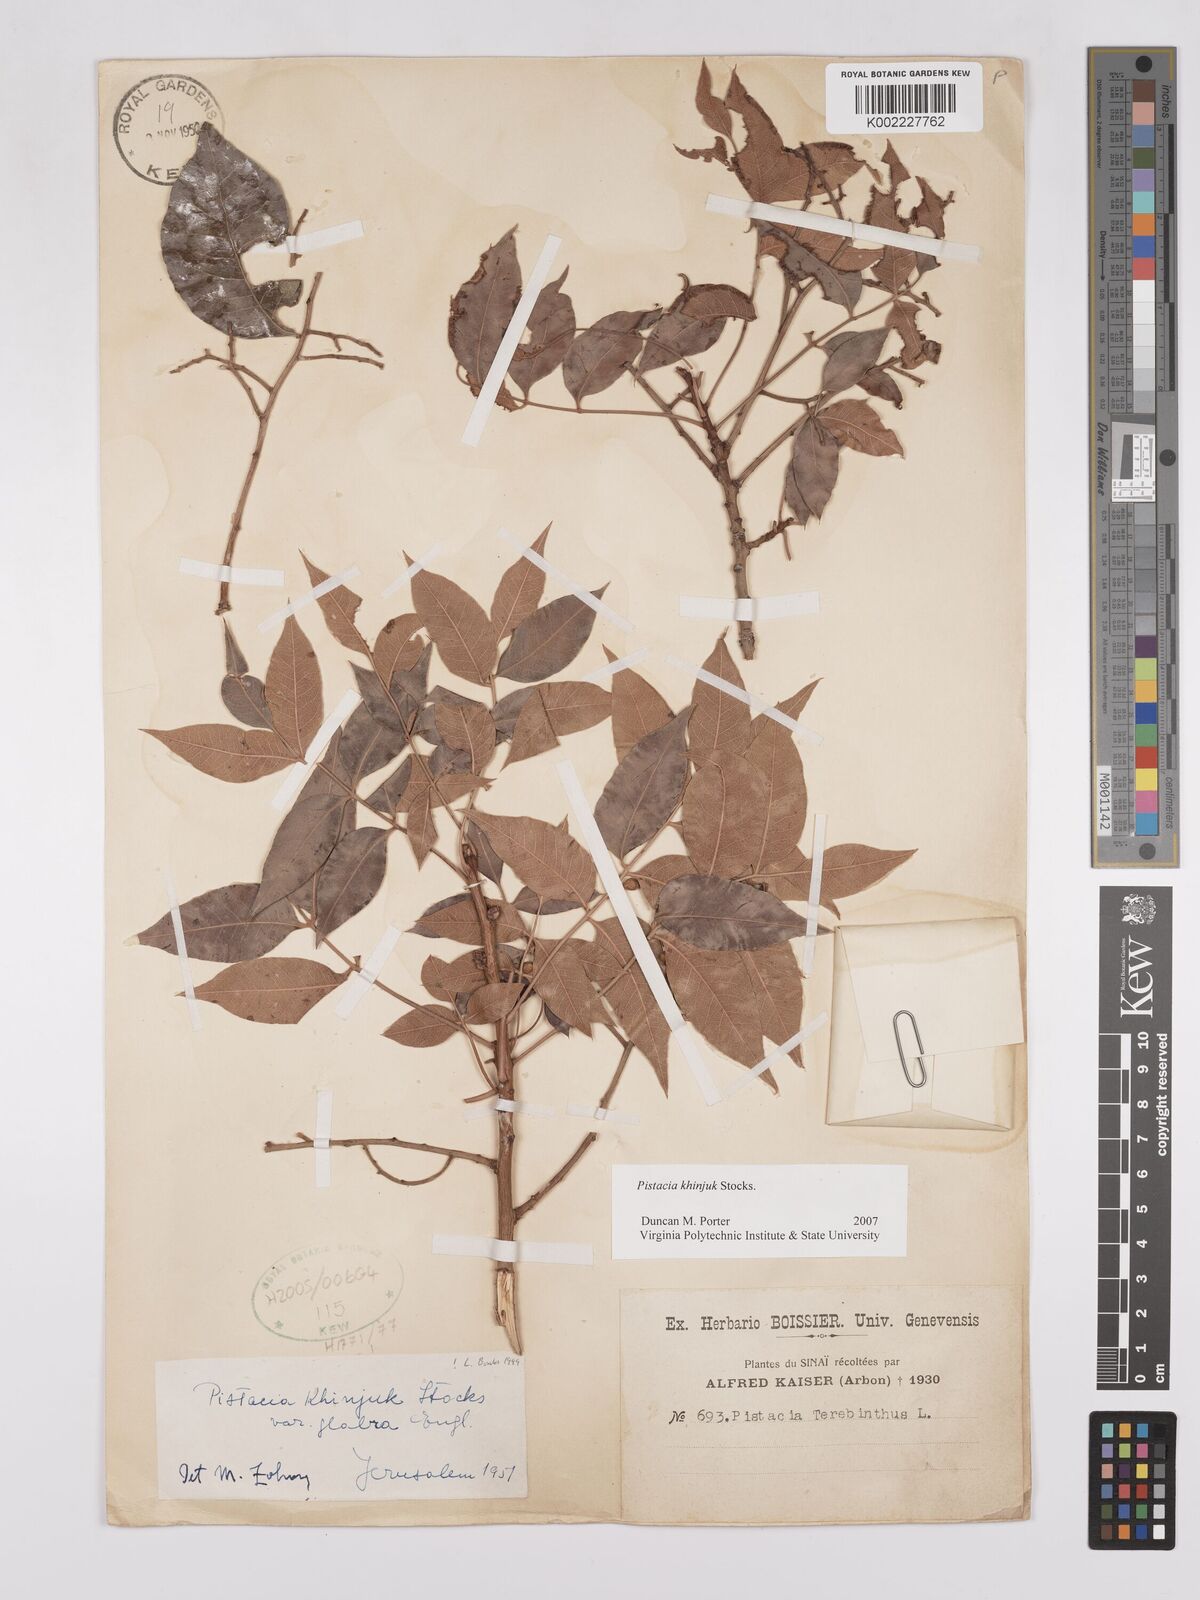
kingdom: Plantae
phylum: Tracheophyta
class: Magnoliopsida
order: Sapindales
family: Anacardiaceae
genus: Pistacia
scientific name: Pistacia khinjuk
